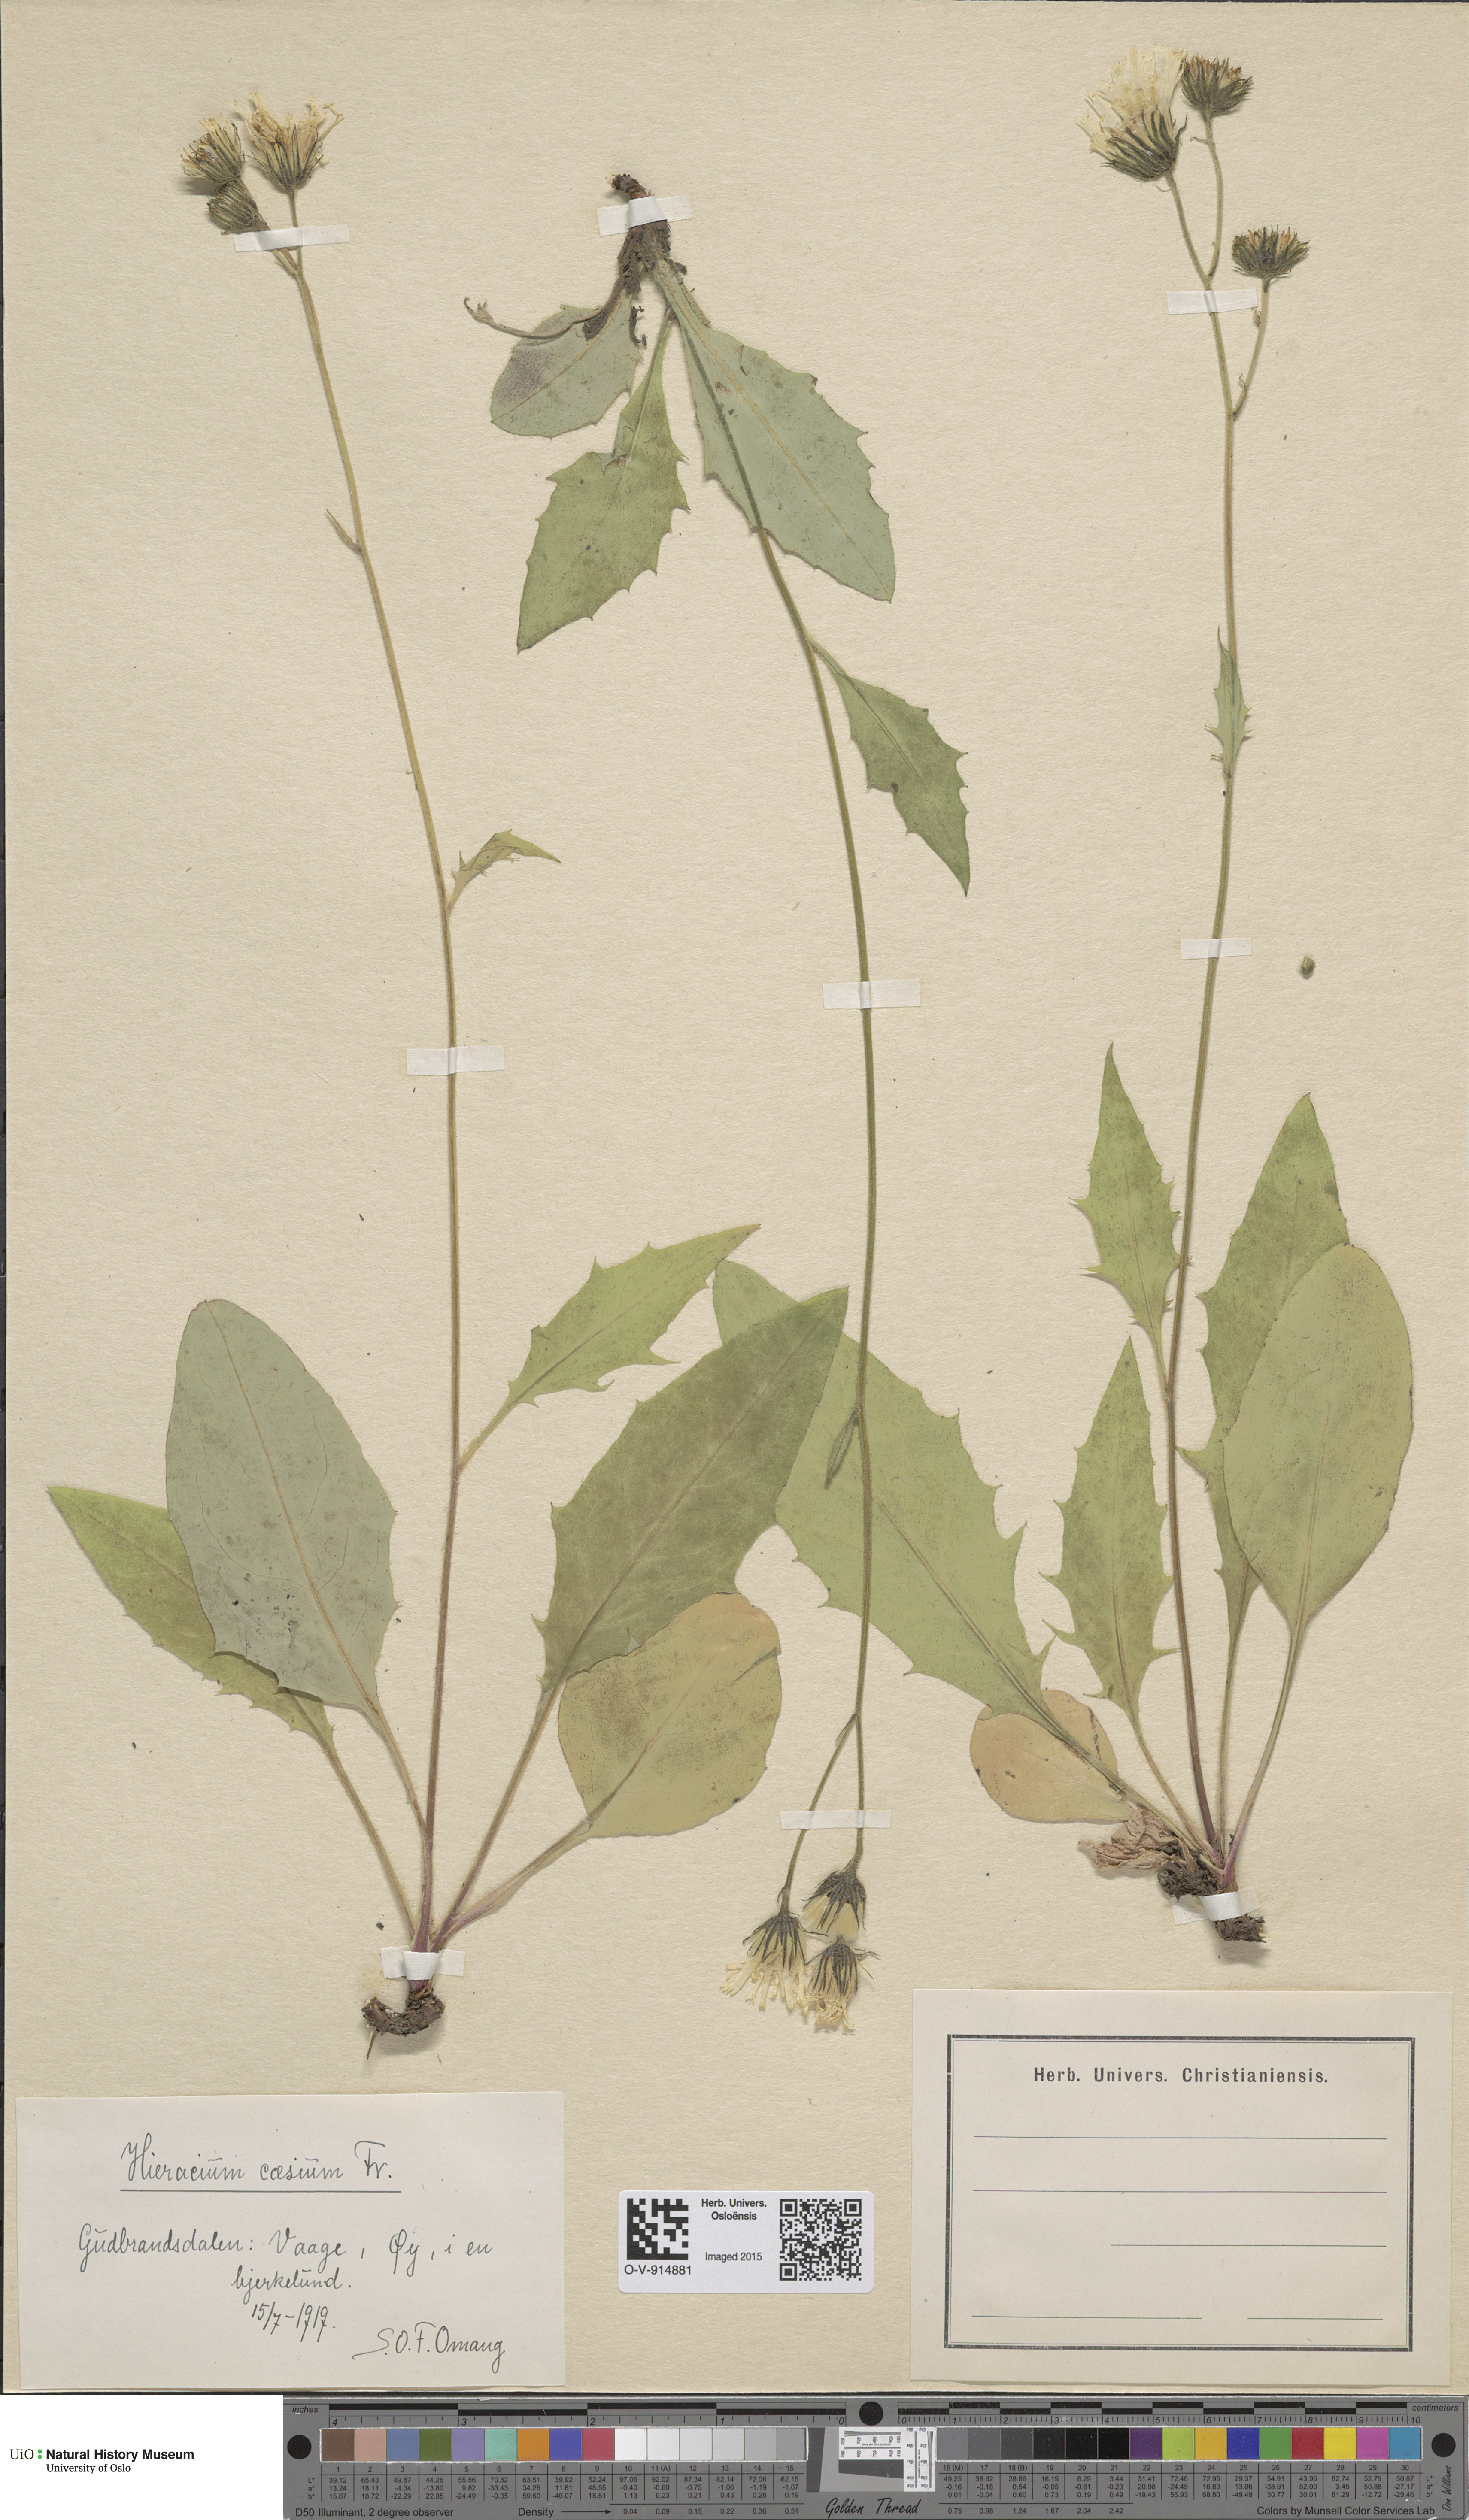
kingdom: Plantae
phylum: Tracheophyta
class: Magnoliopsida
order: Asterales
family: Asteraceae
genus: Hieracium
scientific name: Hieracium caesium
